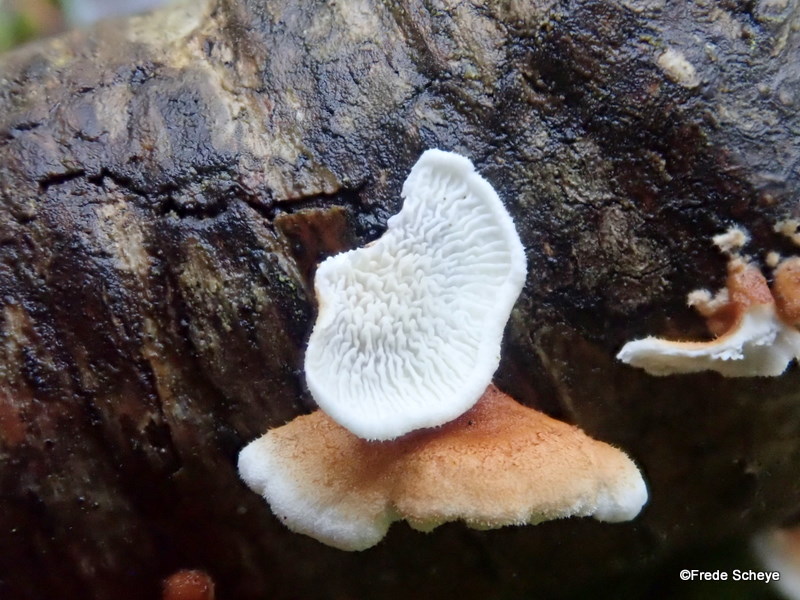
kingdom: Fungi
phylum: Basidiomycota
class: Agaricomycetes
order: Amylocorticiales
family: Amylocorticiaceae
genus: Plicaturopsis
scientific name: Plicaturopsis crispa
